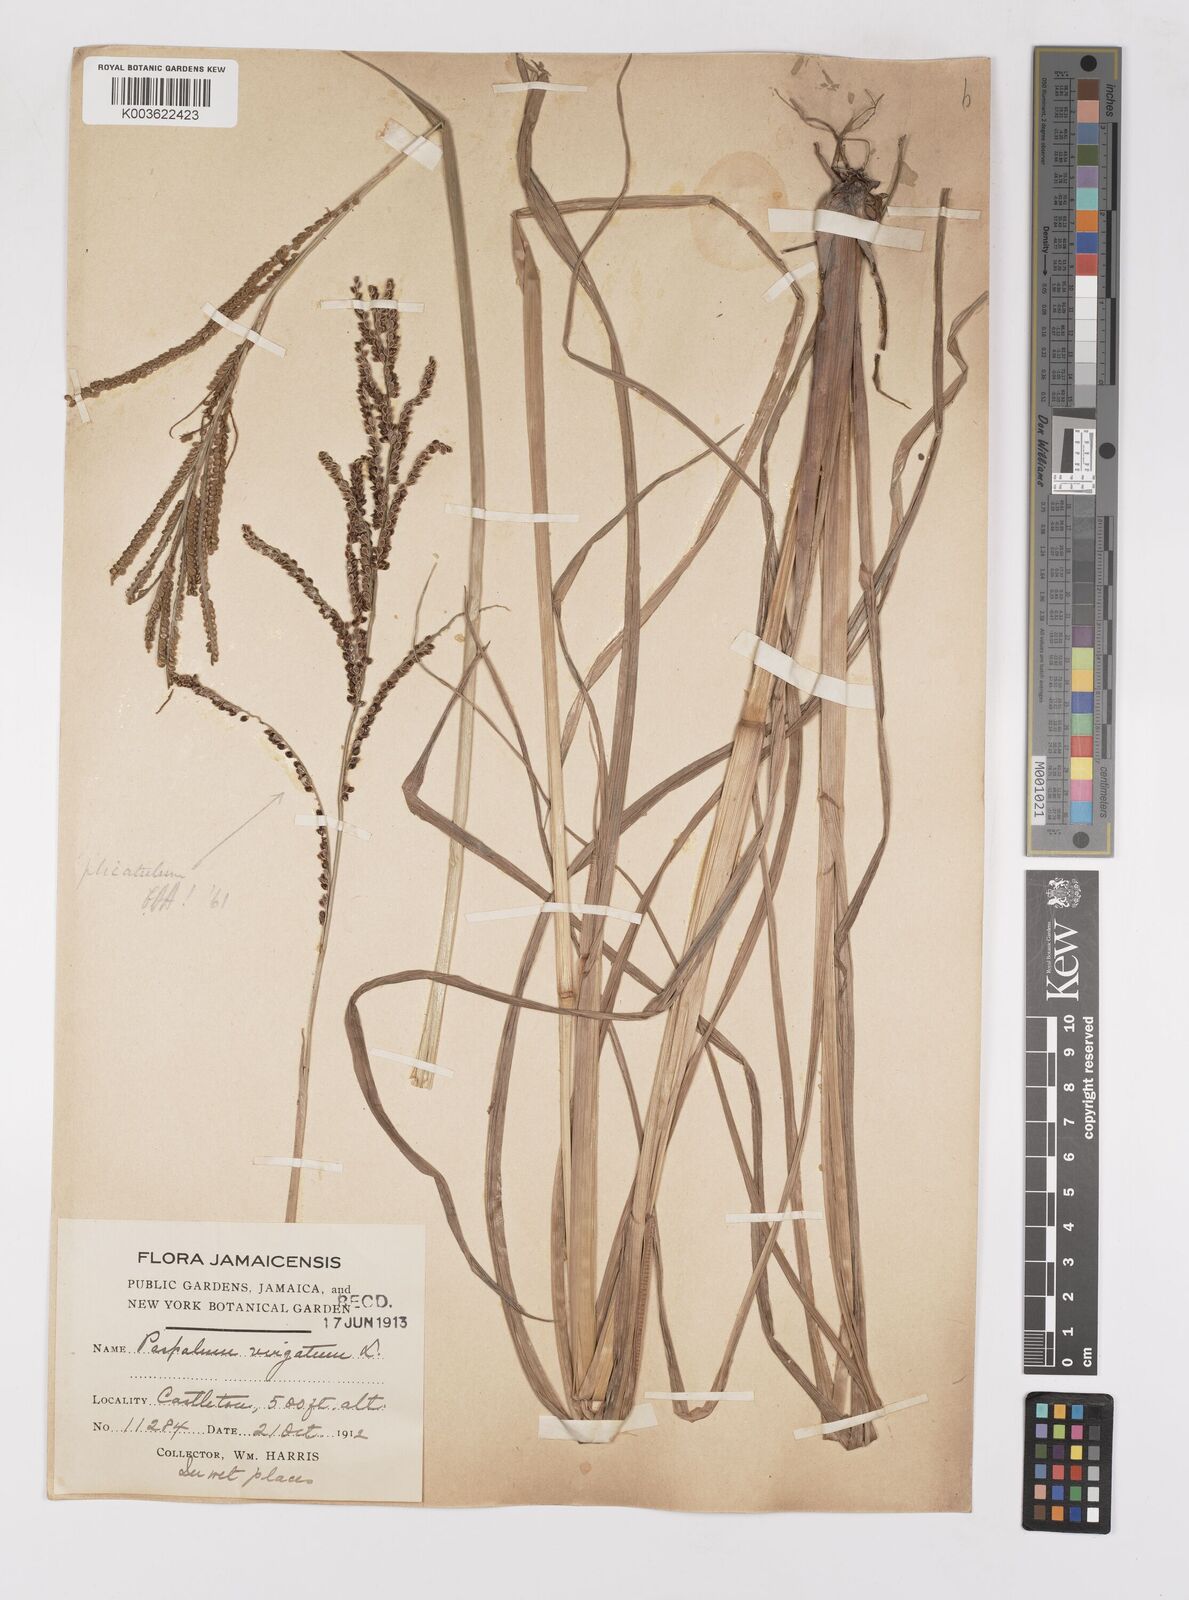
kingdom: Plantae
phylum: Tracheophyta
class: Liliopsida
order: Poales
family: Poaceae
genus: Paspalum
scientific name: Paspalum virgatum
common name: Talquezal
